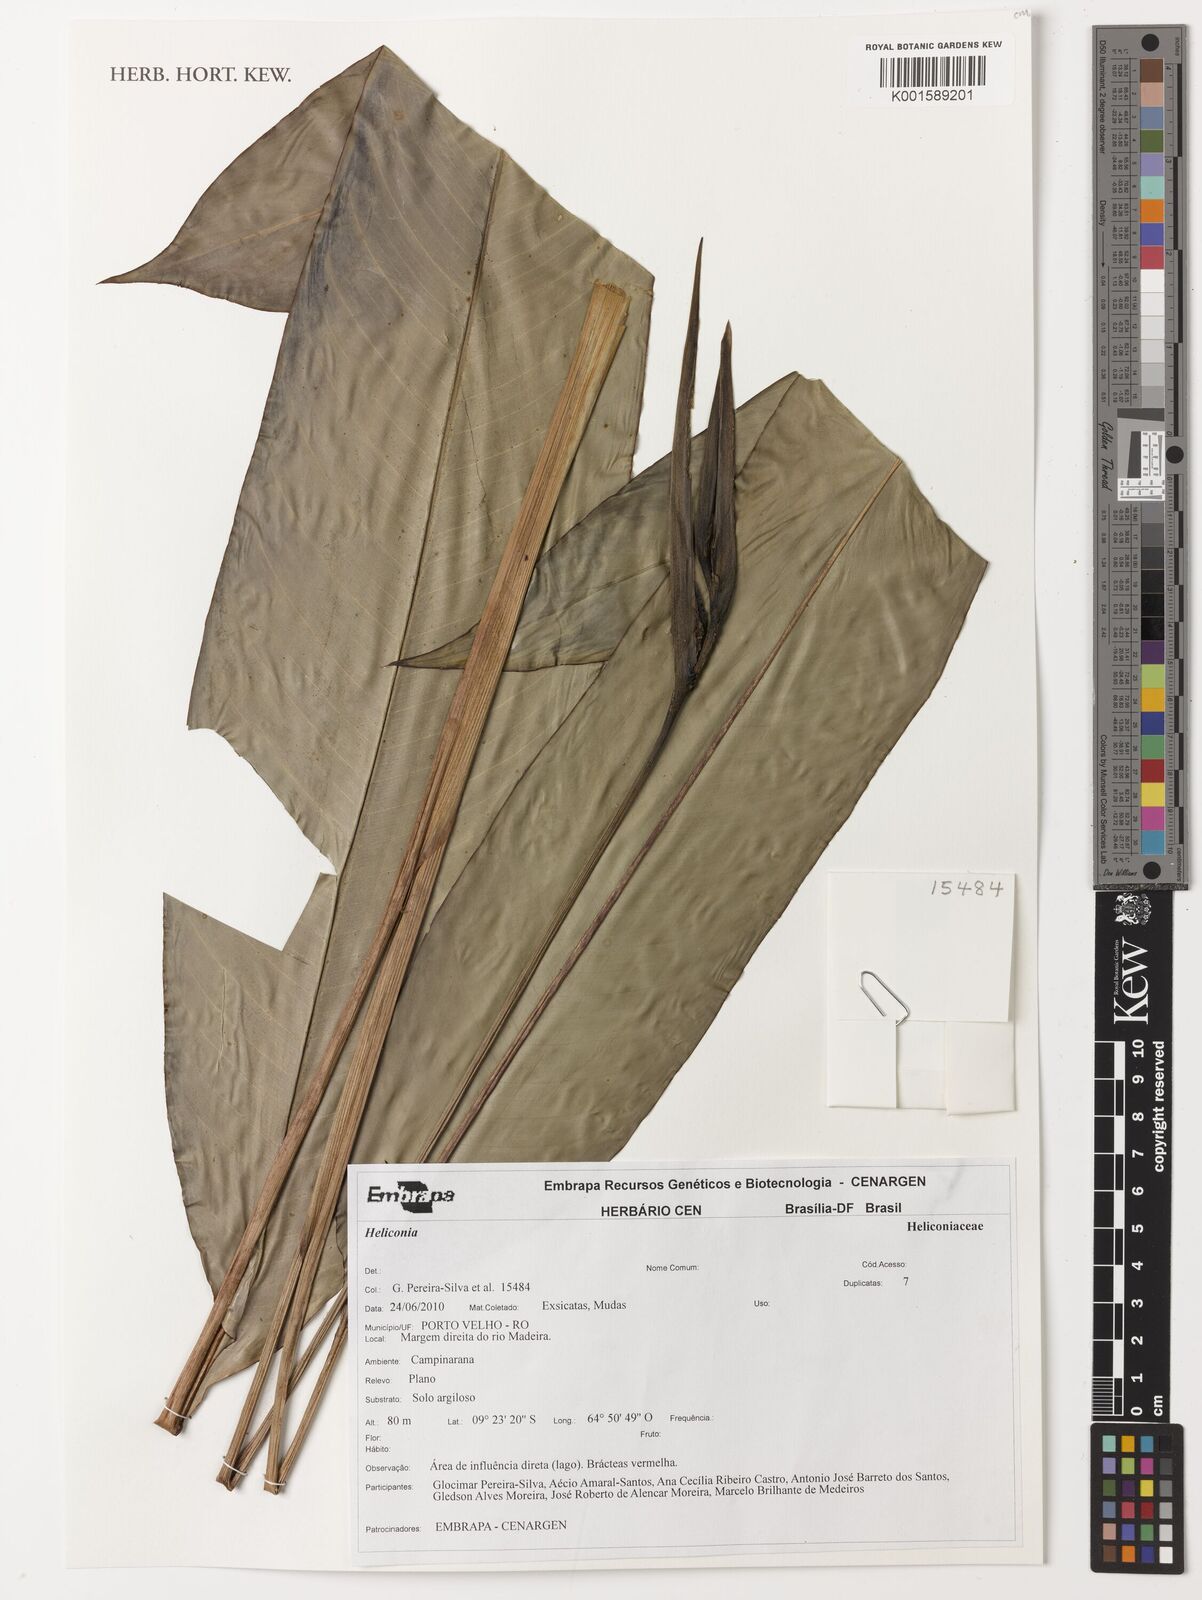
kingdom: Plantae
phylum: Tracheophyta
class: Liliopsida
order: Zingiberales
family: Heliconiaceae
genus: Heliconia
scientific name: Heliconia
